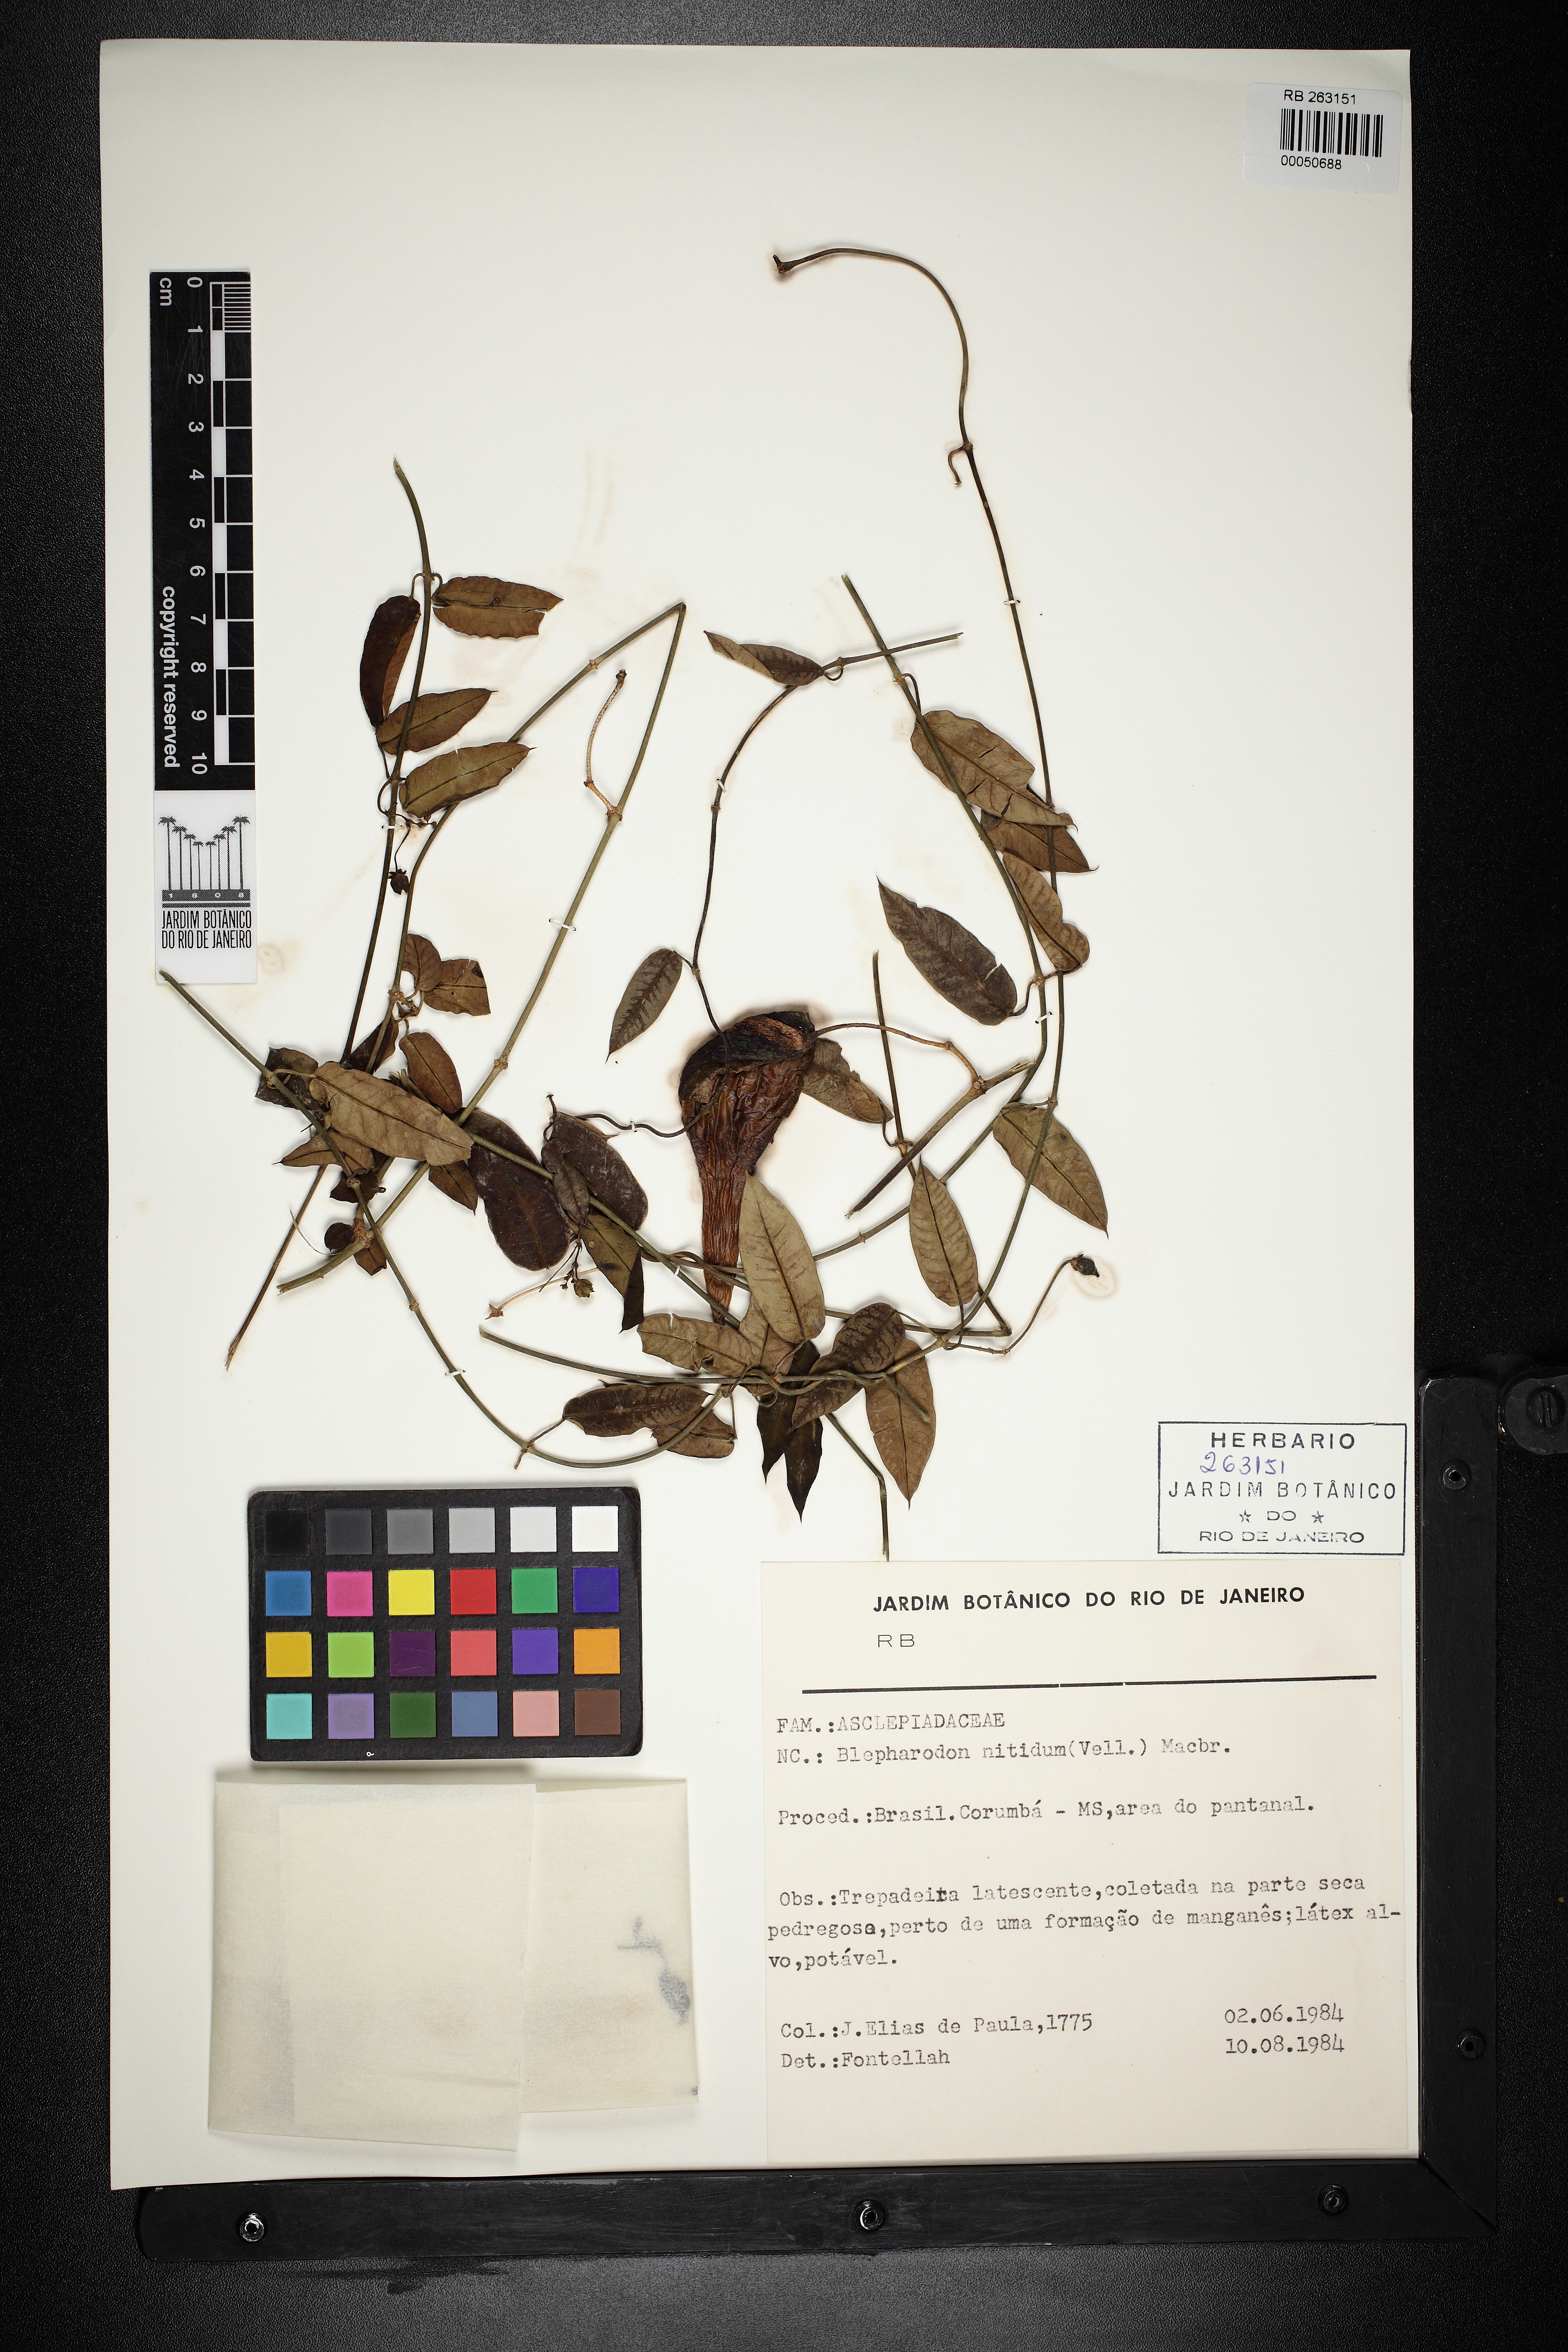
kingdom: Plantae
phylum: Tracheophyta
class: Magnoliopsida
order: Gentianales
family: Apocynaceae
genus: Blepharodon
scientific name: Blepharodon pictum
